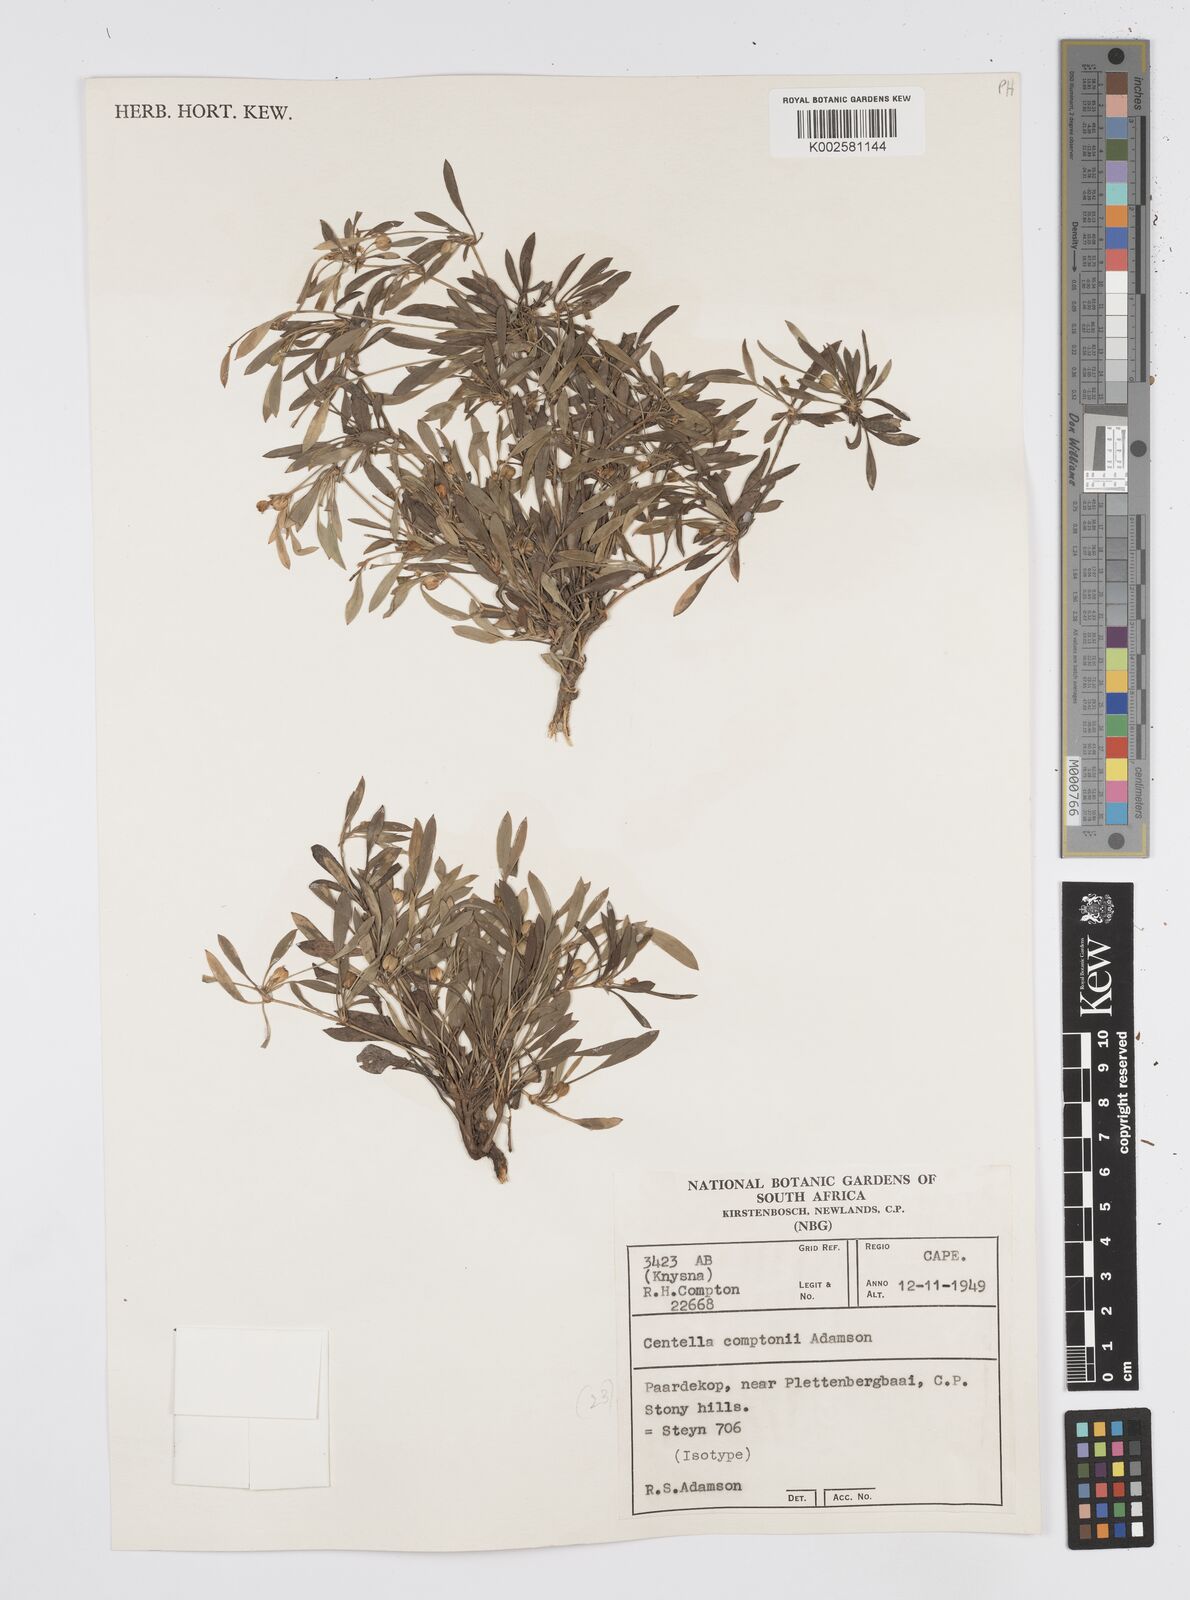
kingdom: Plantae
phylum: Tracheophyta
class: Magnoliopsida
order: Apiales
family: Apiaceae
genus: Centella
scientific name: Centella comptonii
